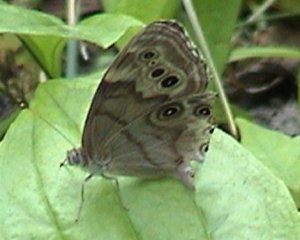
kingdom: Animalia
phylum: Arthropoda
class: Insecta
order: Lepidoptera
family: Nymphalidae
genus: Lethe
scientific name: Lethe anthedon
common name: Northern Pearly-Eye
